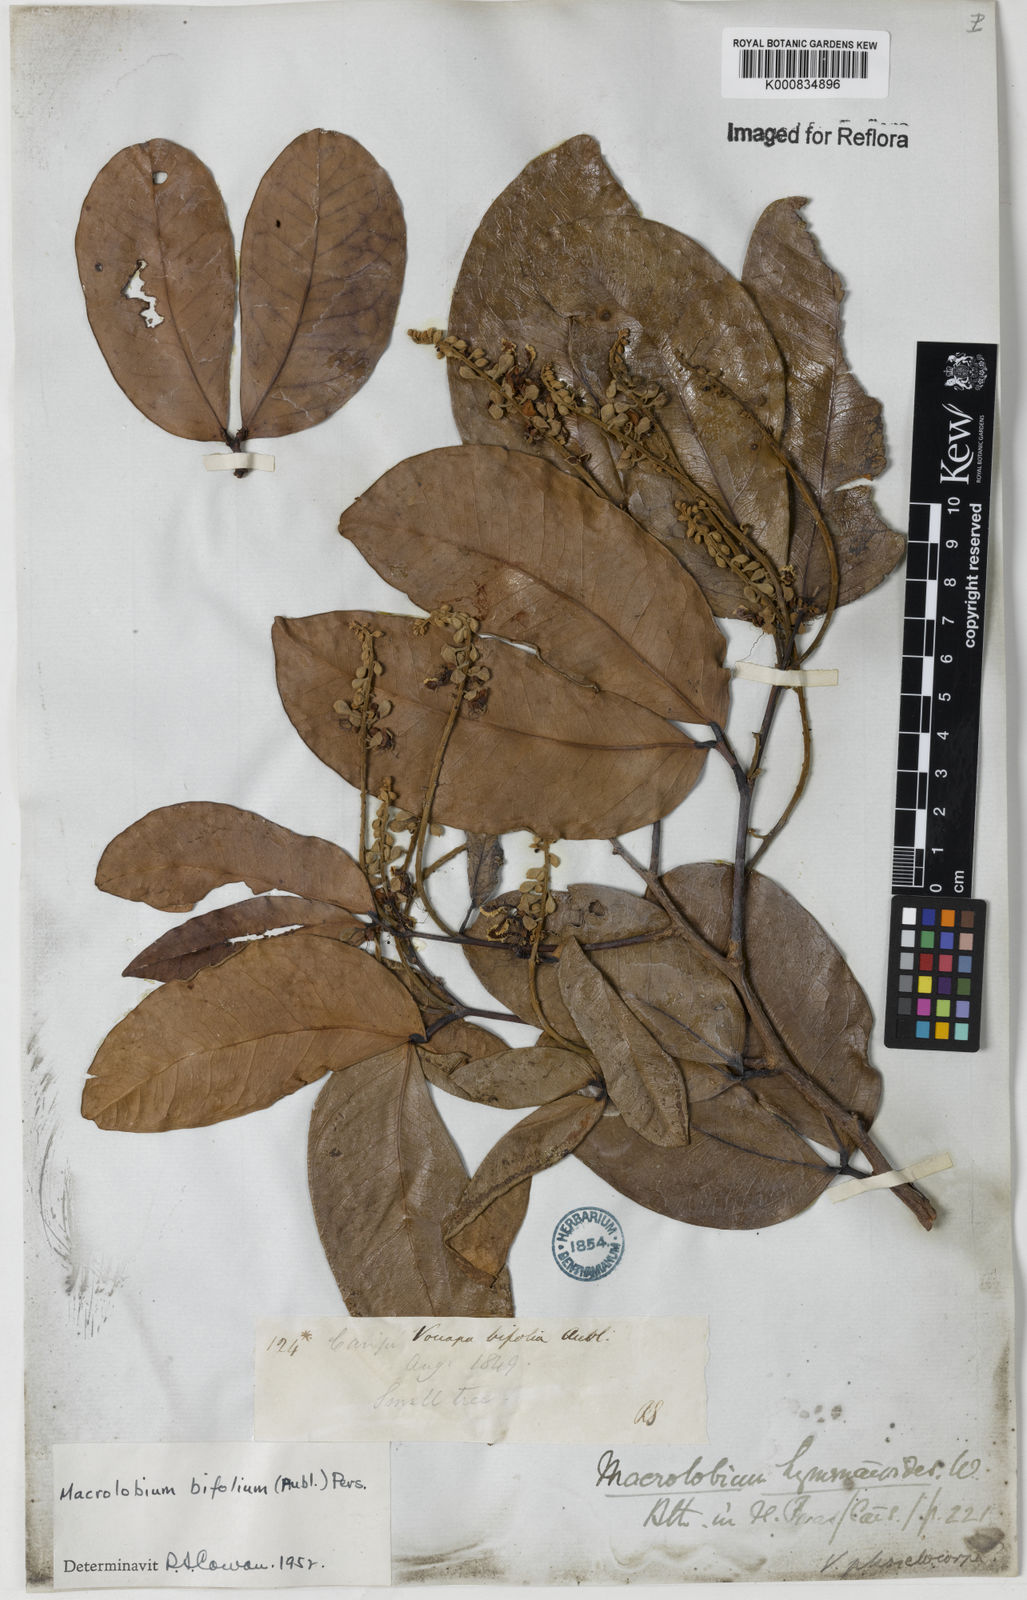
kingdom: Plantae
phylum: Tracheophyta
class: Magnoliopsida
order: Fabales
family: Fabaceae
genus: Macrolobium
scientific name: Macrolobium
